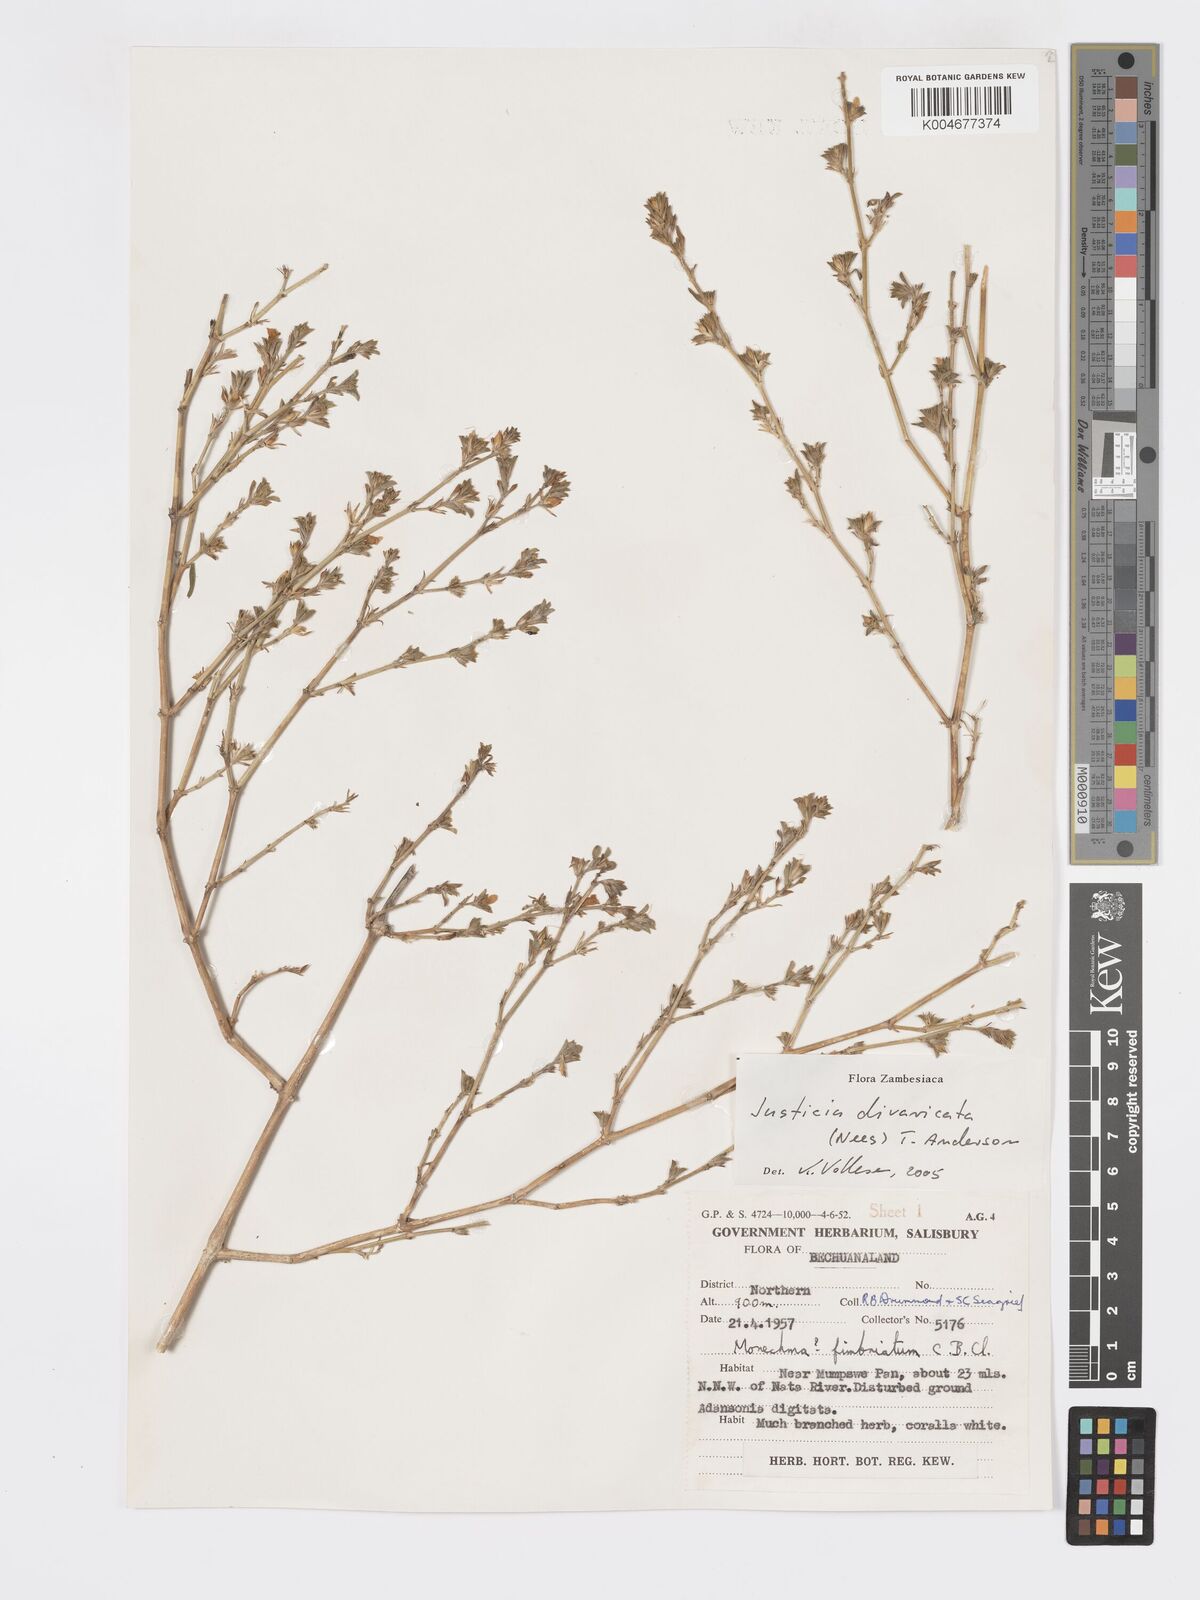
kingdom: Plantae
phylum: Tracheophyta
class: Magnoliopsida
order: Lamiales
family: Acanthaceae
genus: Pogonospermum
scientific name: Pogonospermum
